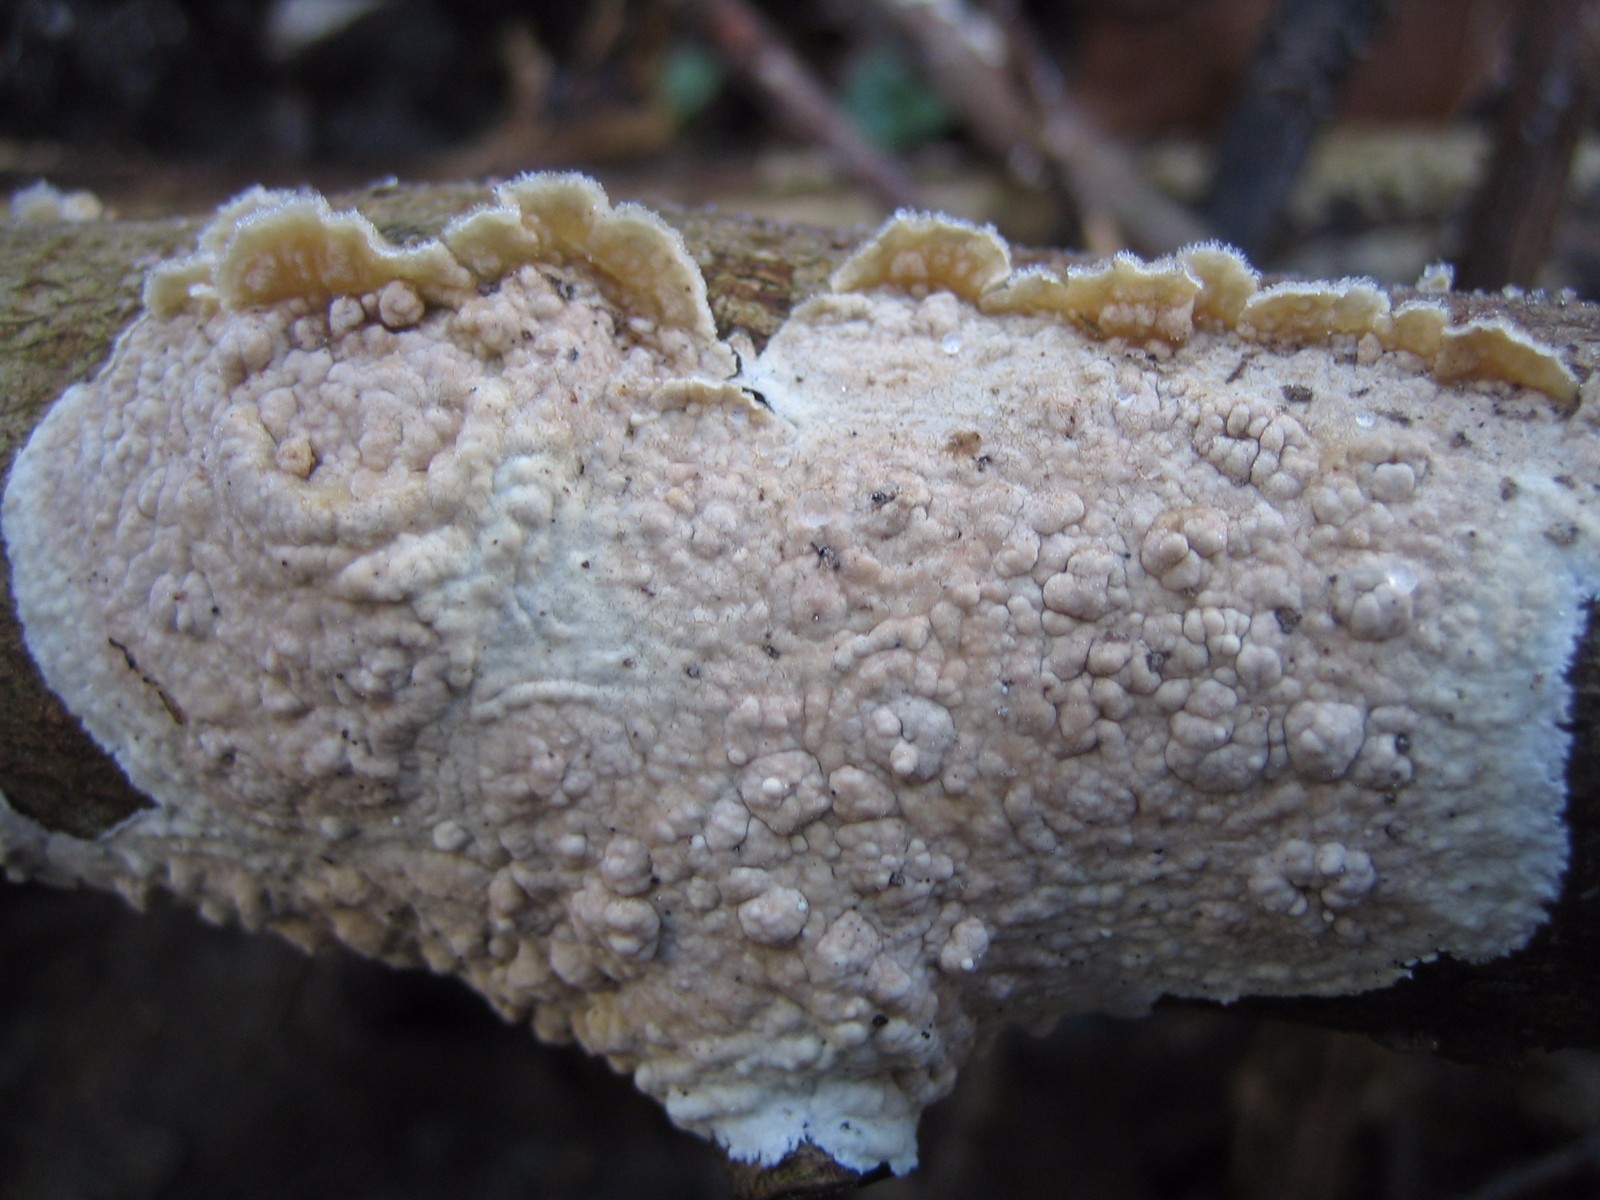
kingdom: Fungi
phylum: Basidiomycota
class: Agaricomycetes
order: Agaricales
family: Physalacriaceae
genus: Cylindrobasidium
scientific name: Cylindrobasidium evolvens
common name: sprækkehinde
